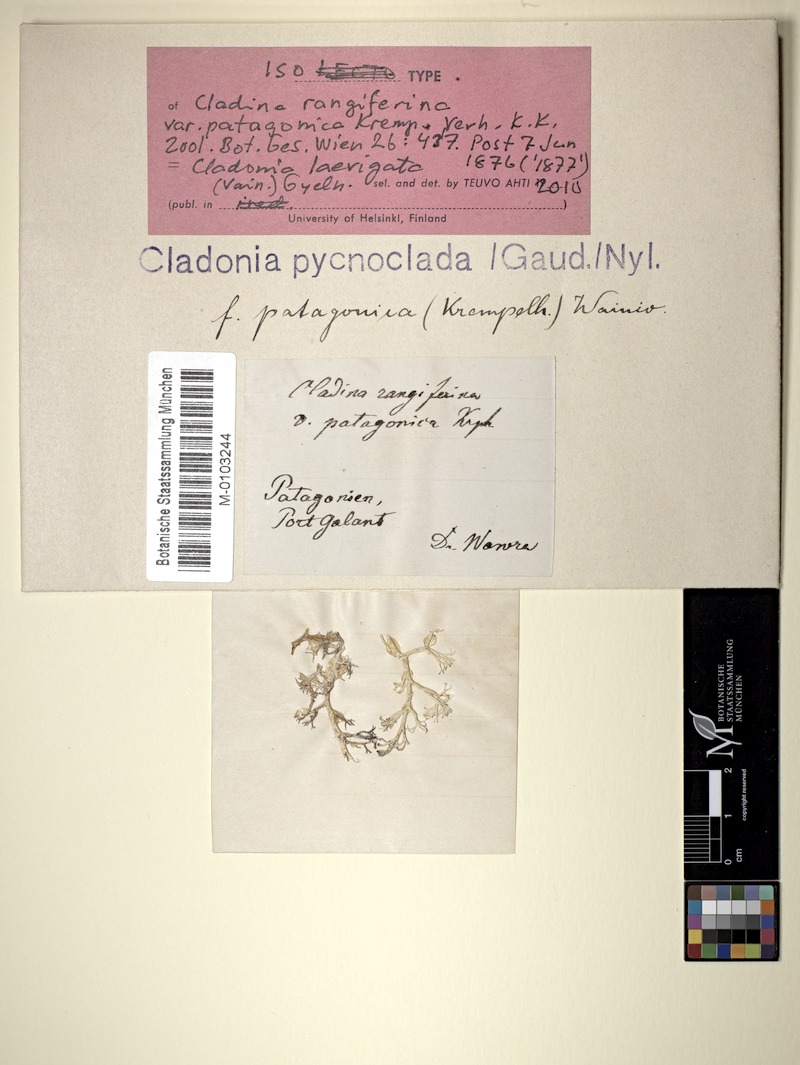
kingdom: Fungi
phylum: Ascomycota
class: Lecanoromycetes
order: Lecanorales
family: Cladoniaceae
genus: Cladonia
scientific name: Cladonia laevigata
